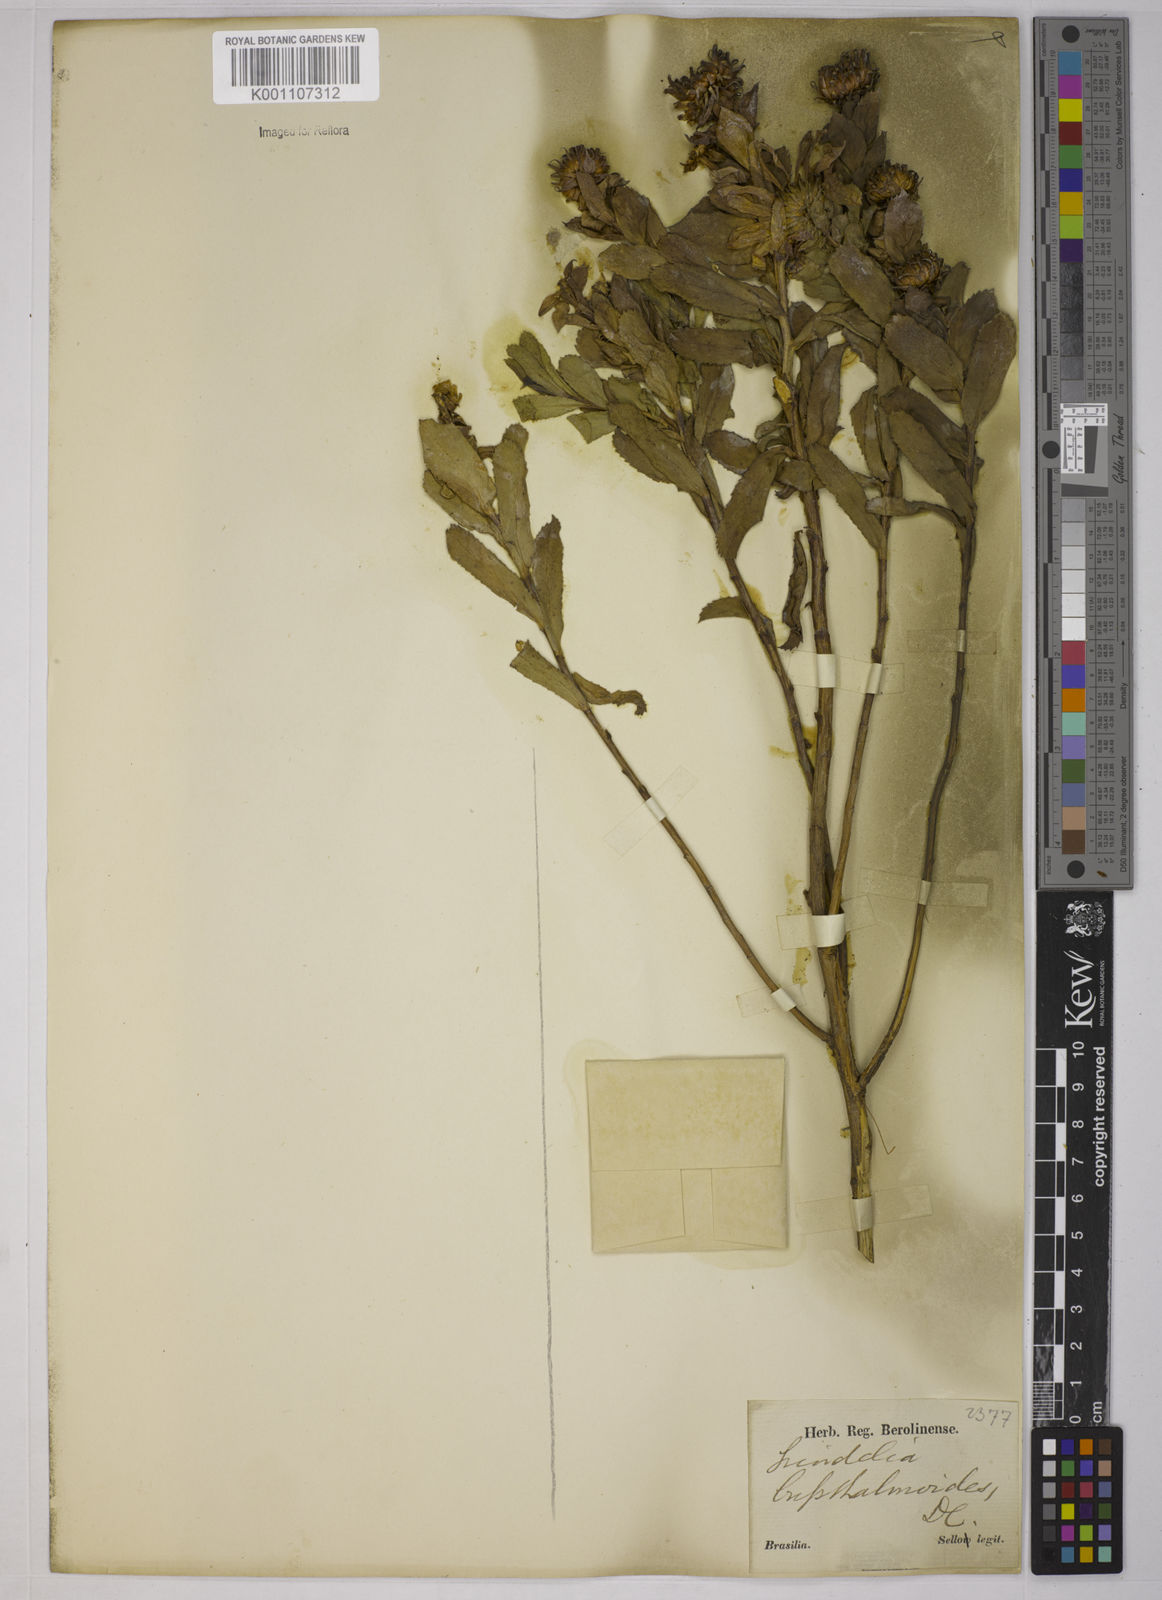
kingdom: Plantae
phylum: Tracheophyta
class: Magnoliopsida
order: Asterales
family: Asteraceae
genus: Grindelia
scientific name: Grindelia buphthalmoides
